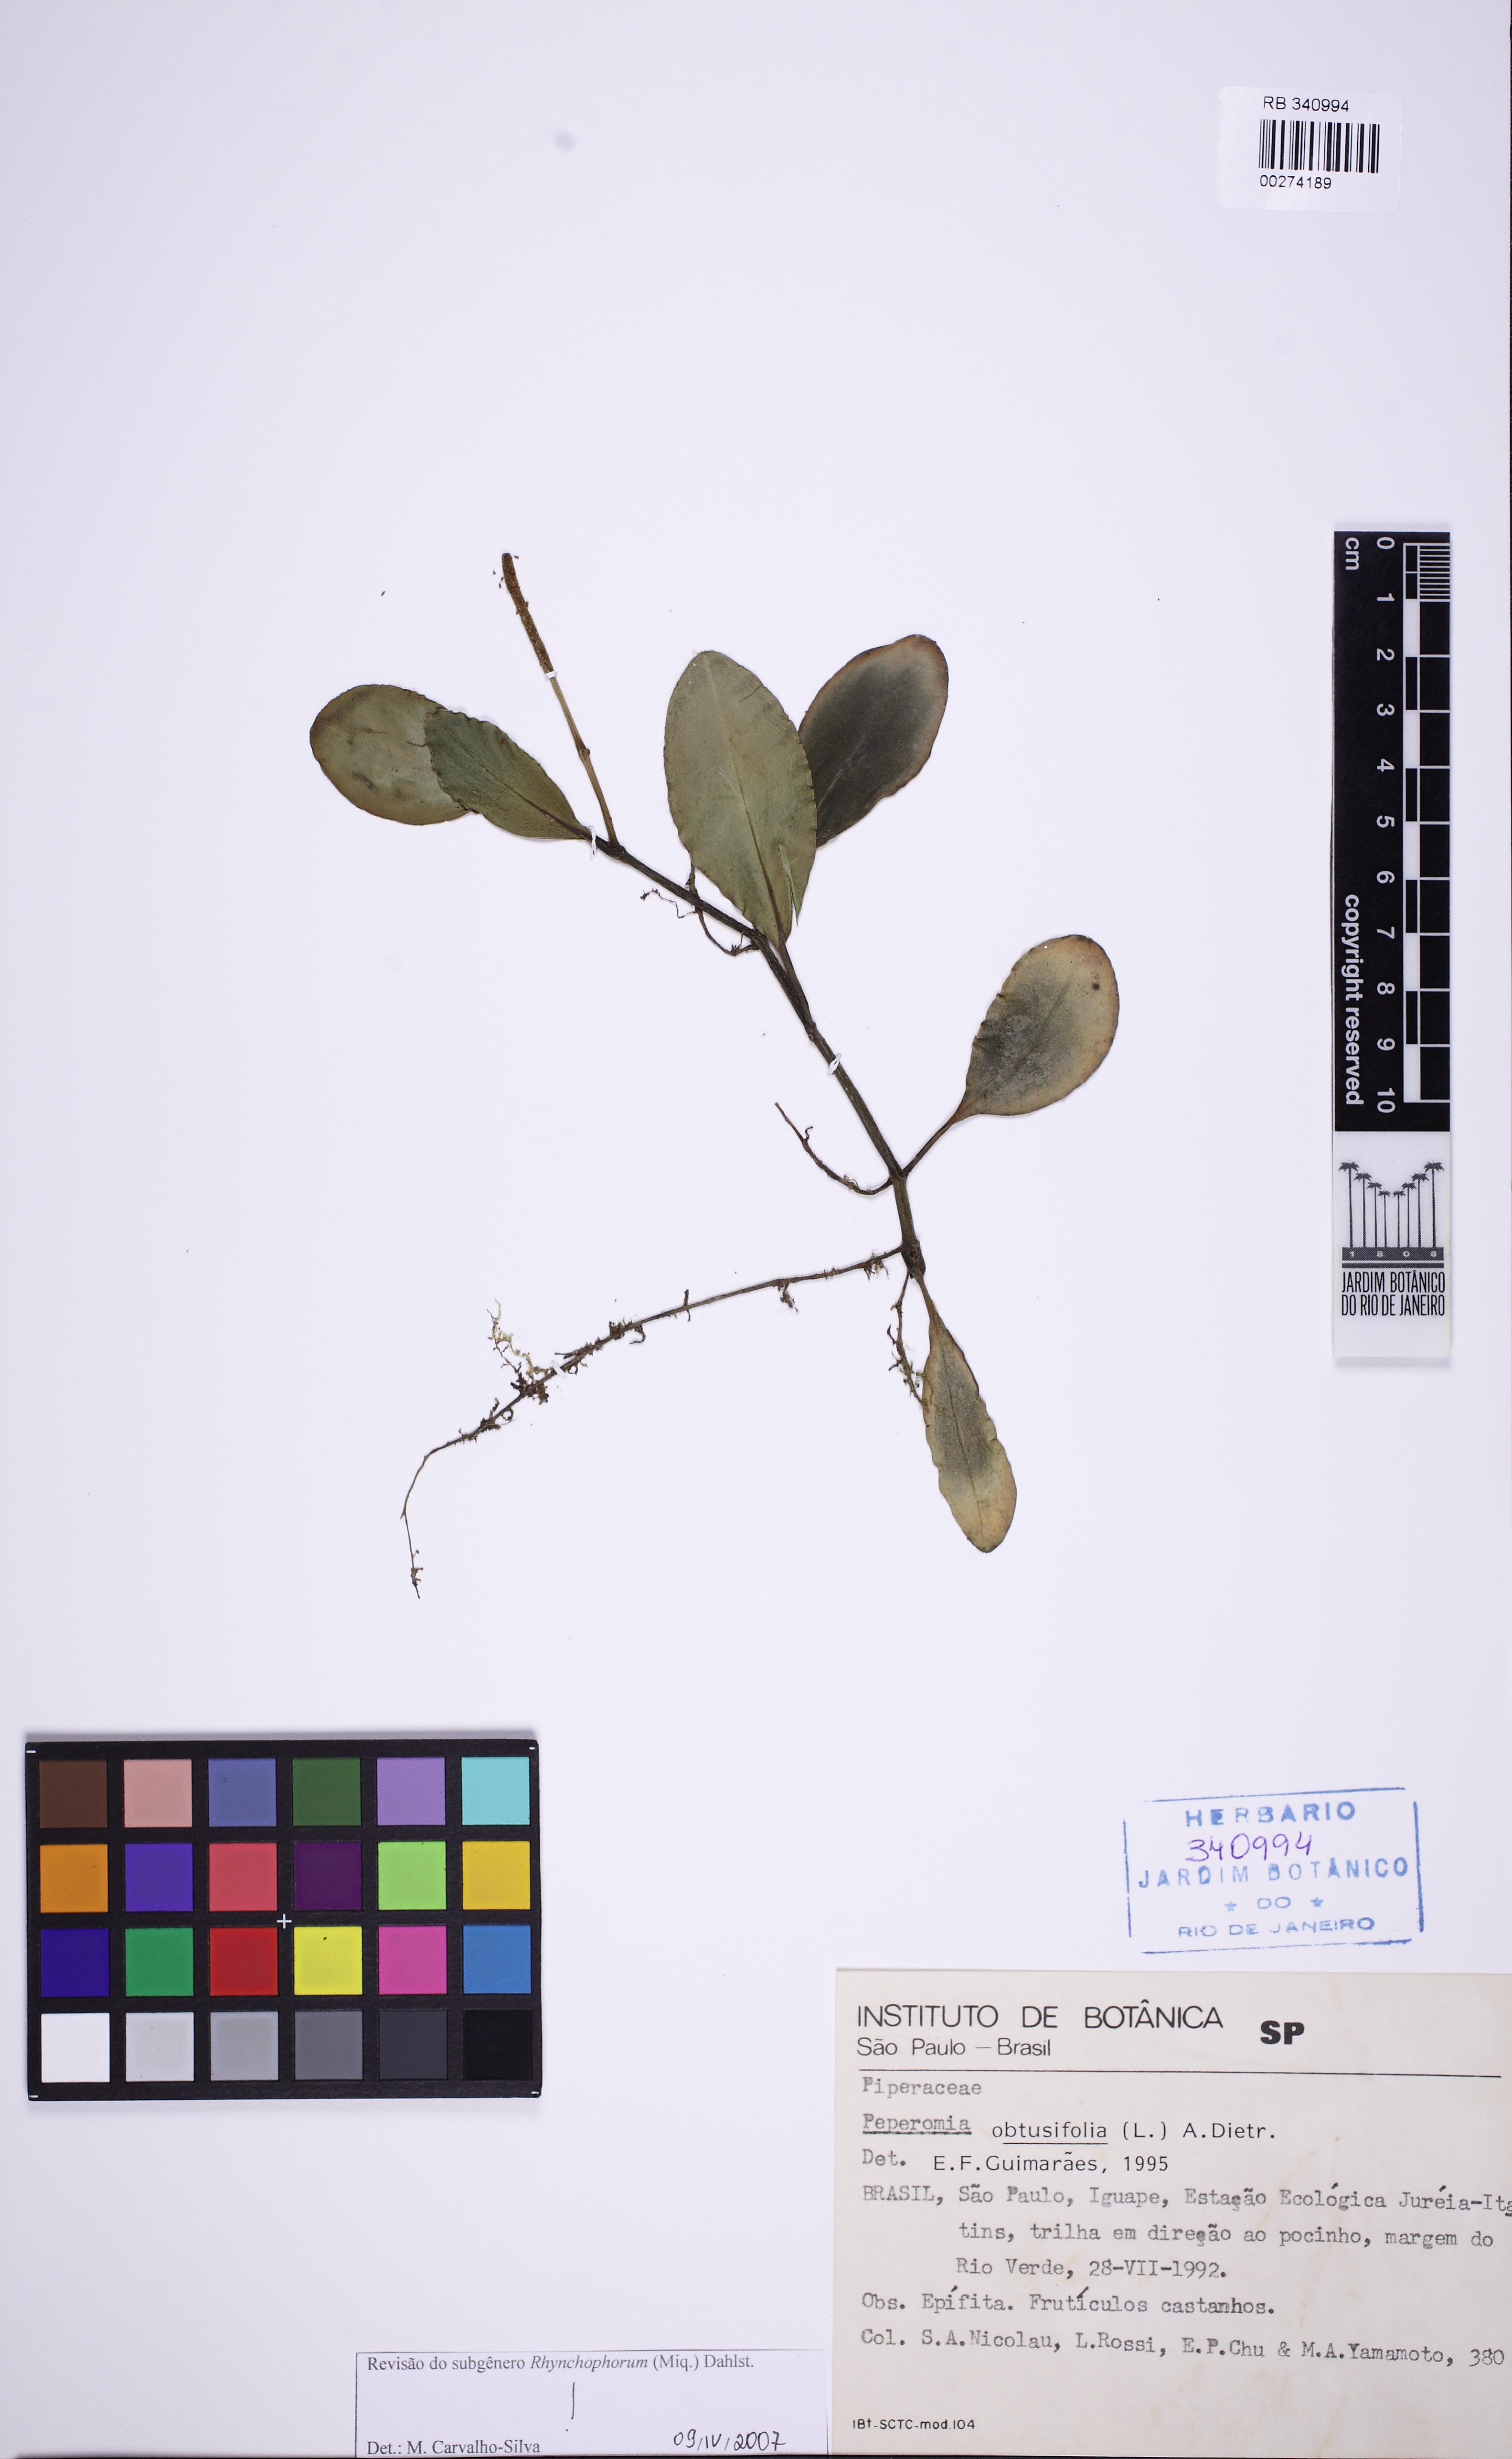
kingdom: Plantae
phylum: Tracheophyta
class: Magnoliopsida
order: Piperales
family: Piperaceae
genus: Peperomia
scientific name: Peperomia obtusifolia
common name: Baby rubberplant
